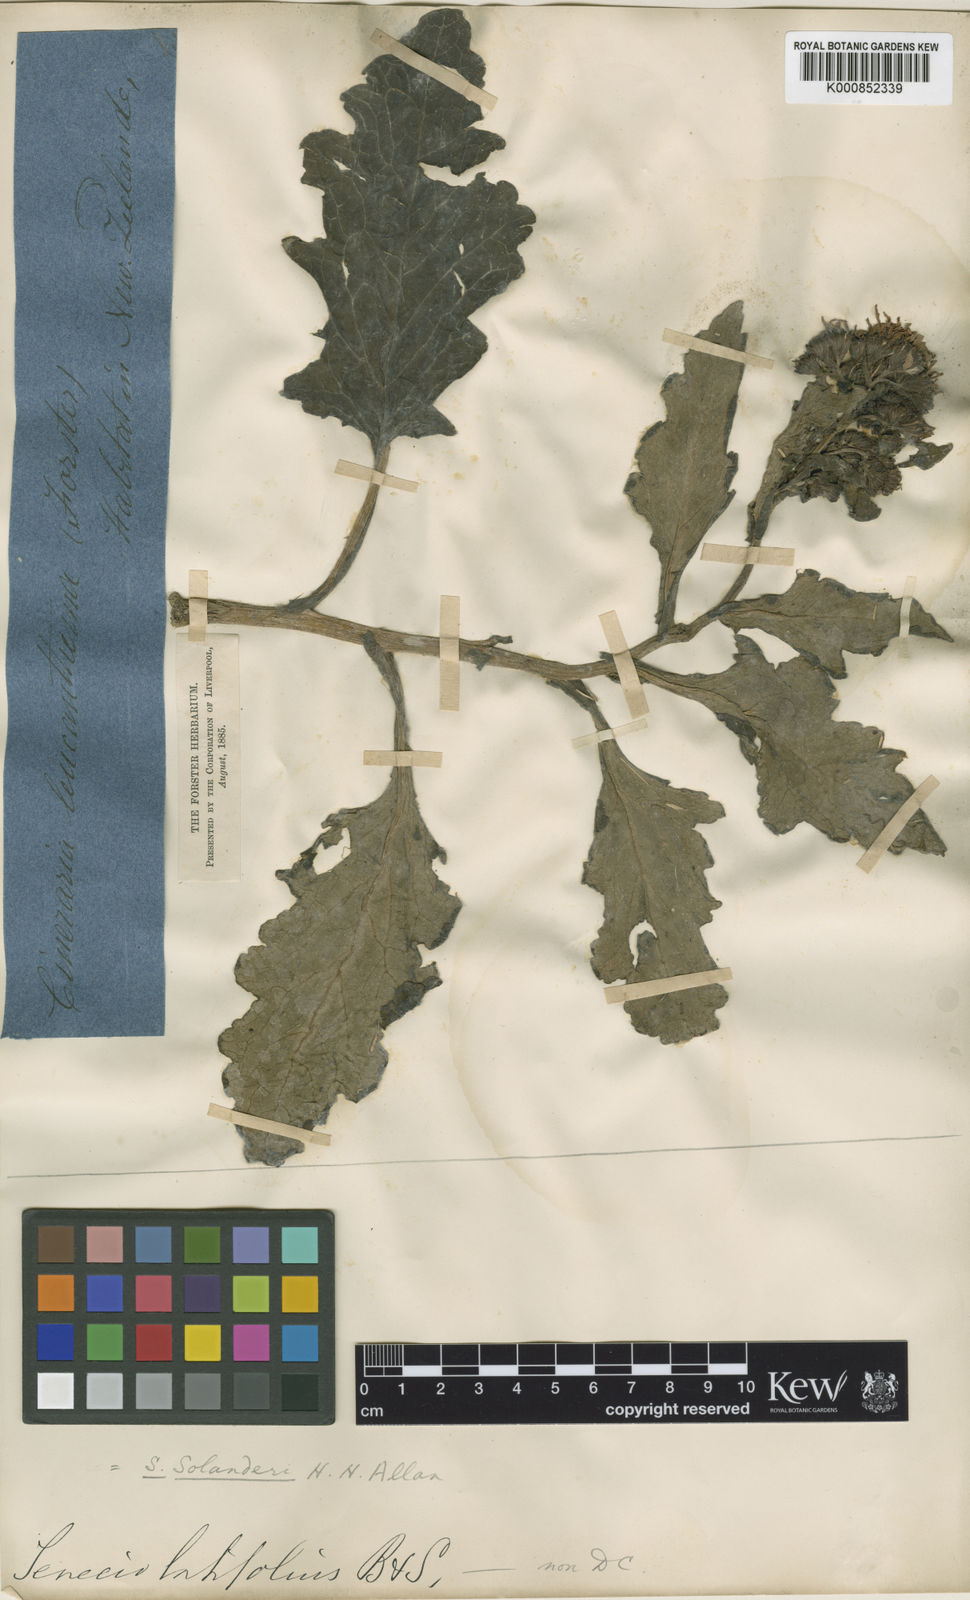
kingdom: Plantae
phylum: Tracheophyta
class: Magnoliopsida
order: Asterales
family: Asteraceae
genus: Senecio
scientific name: Senecio
